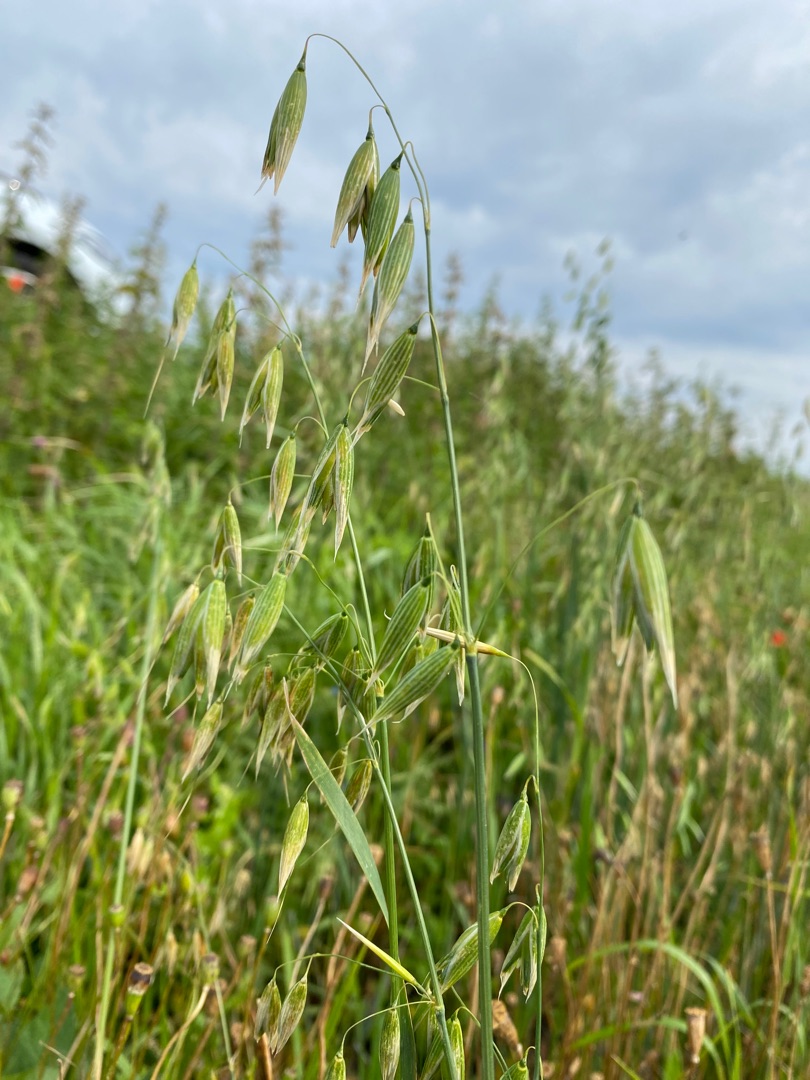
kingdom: Plantae
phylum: Tracheophyta
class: Liliopsida
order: Poales
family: Poaceae
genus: Avena
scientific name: Avena sativa
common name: Almindelig havre
